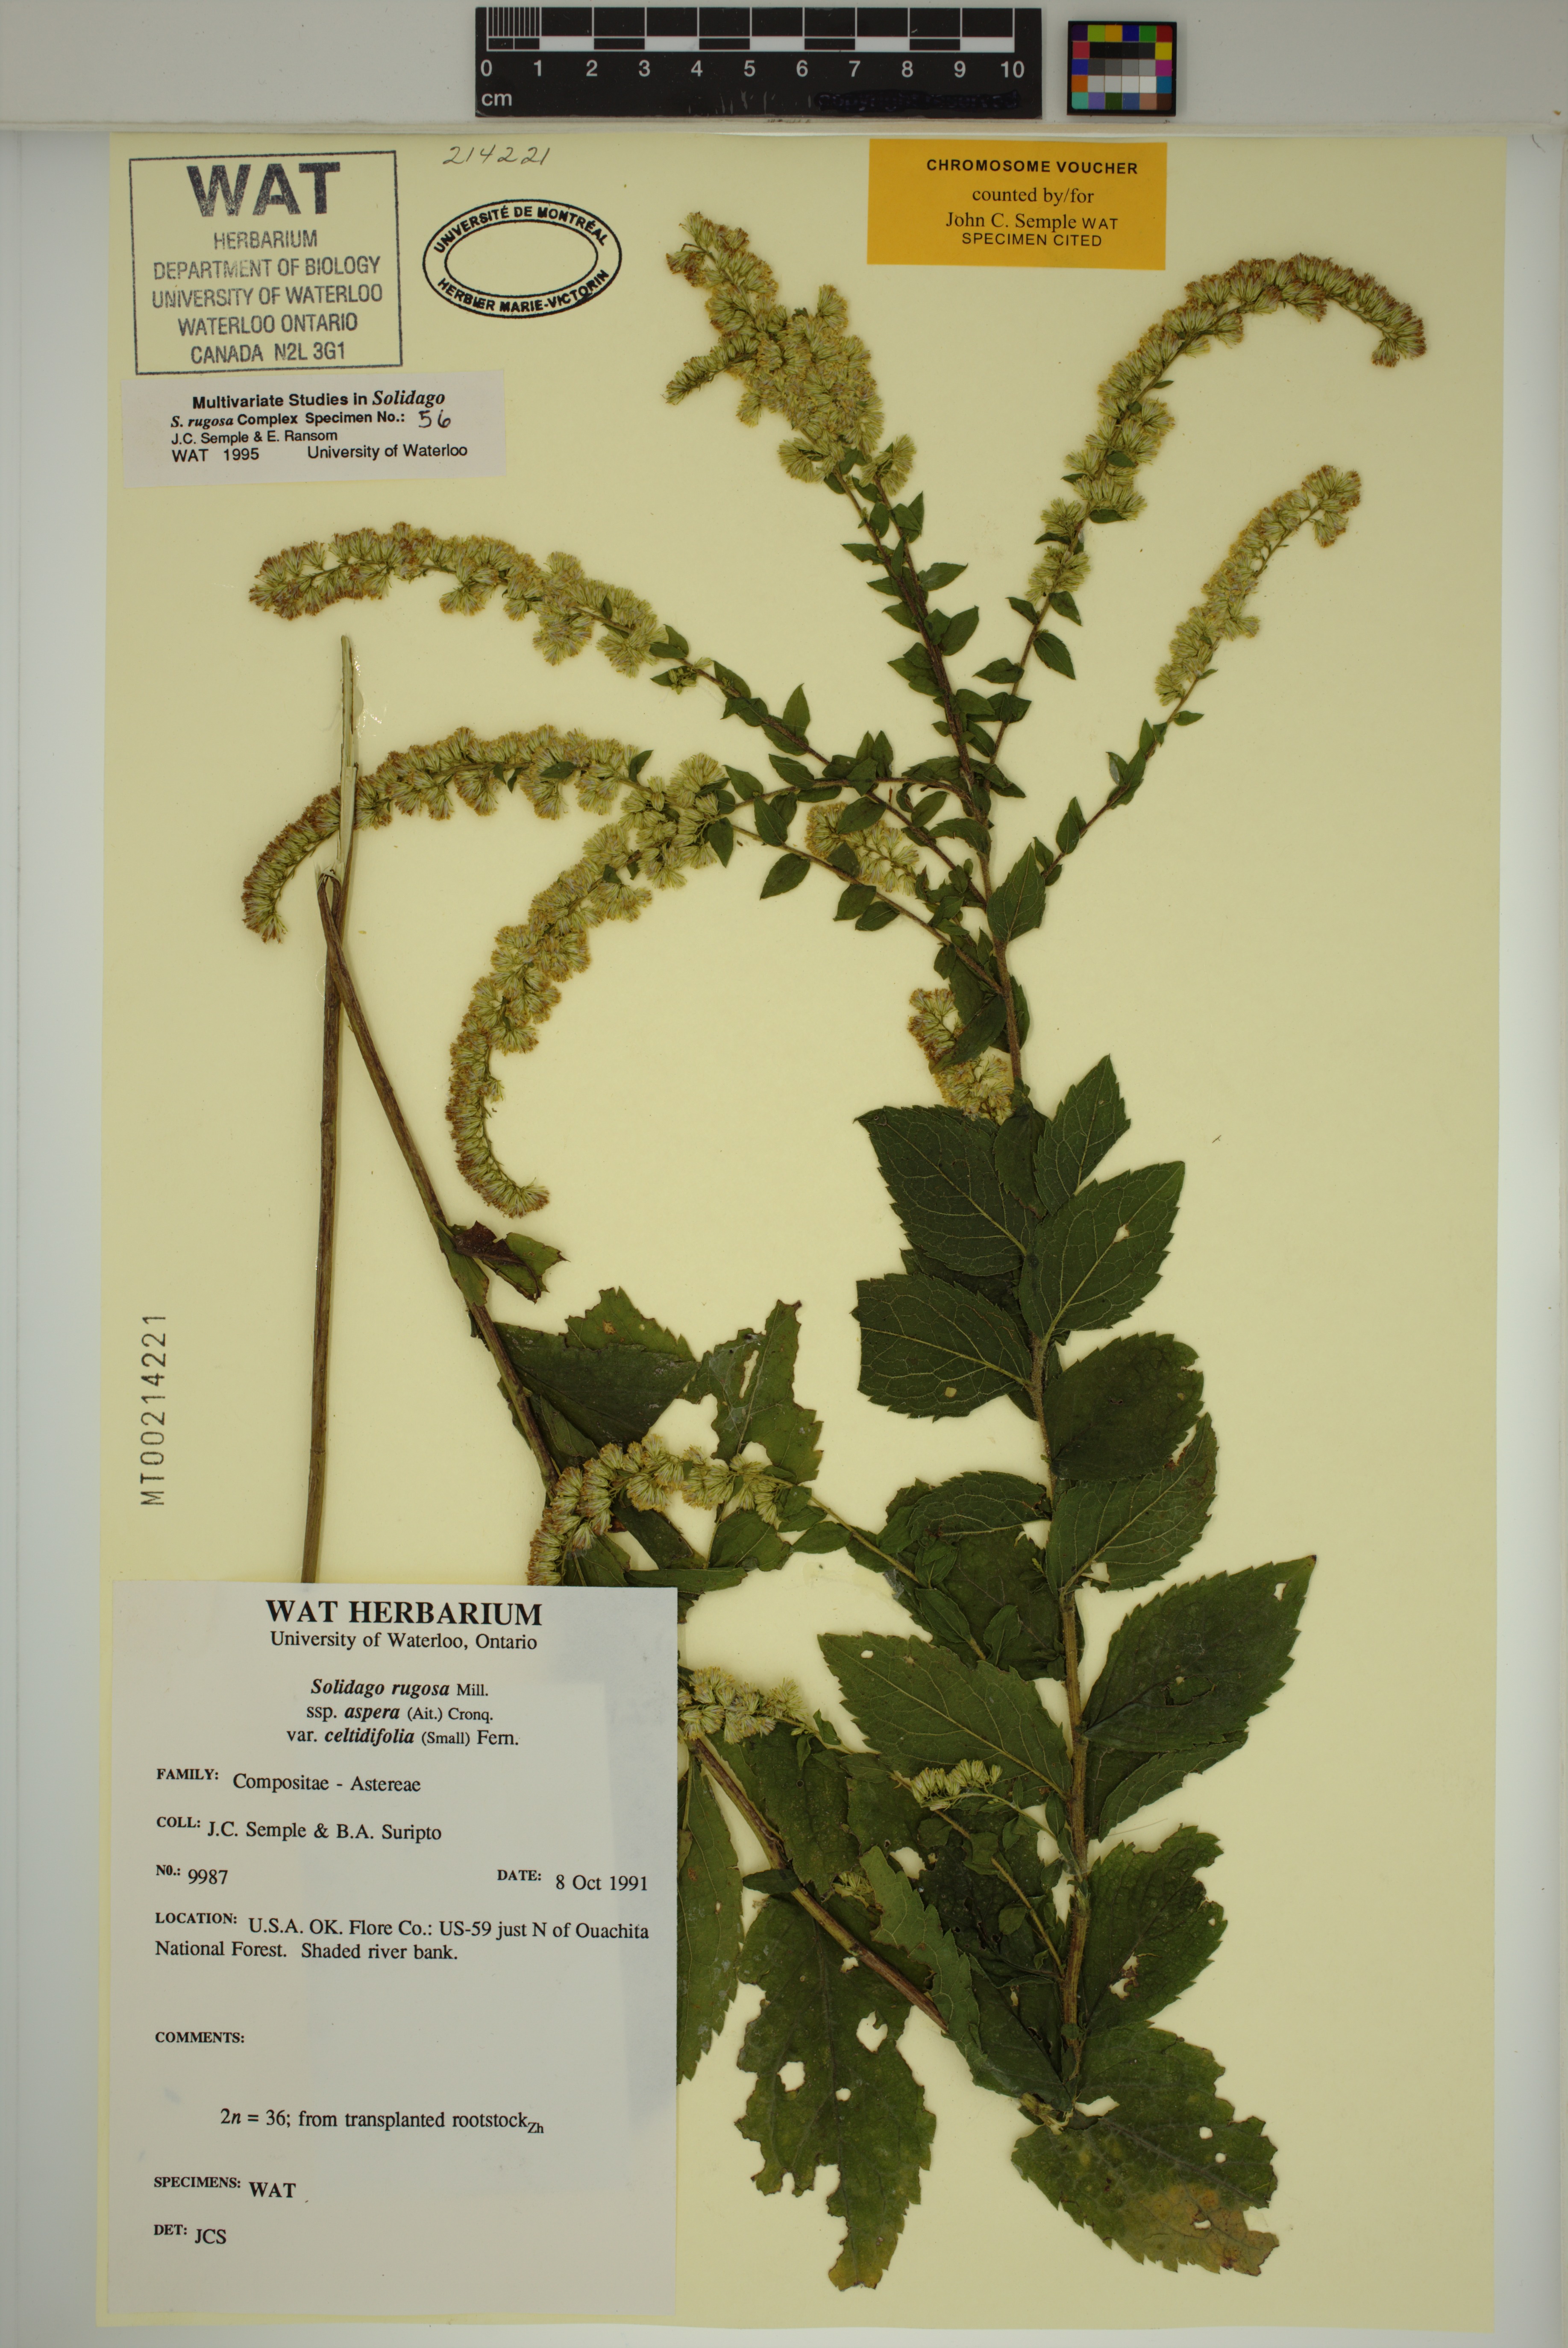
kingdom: Plantae
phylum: Tracheophyta
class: Magnoliopsida
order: Asterales
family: Asteraceae
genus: Solidago
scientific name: Solidago rugosa
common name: Rough-stemmed goldenrod
